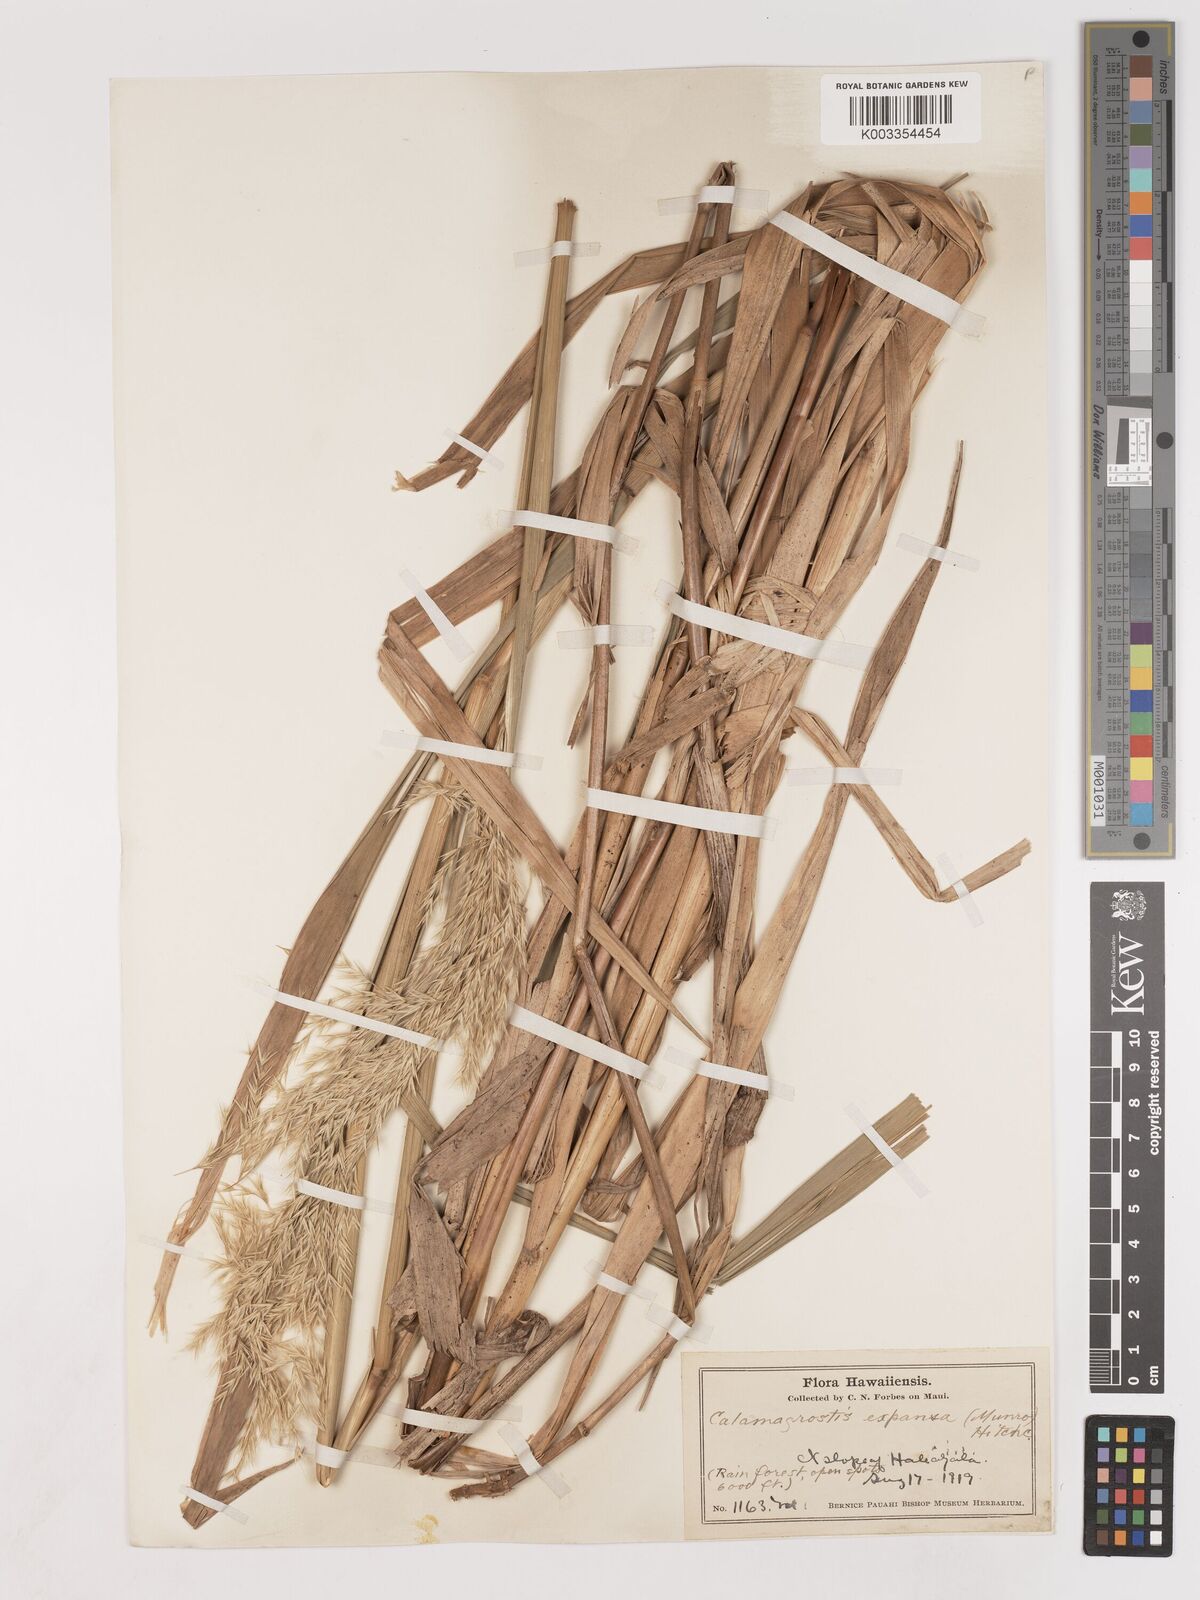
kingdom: Plantae
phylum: Tracheophyta
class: Liliopsida
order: Poales
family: Poaceae
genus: Calamagrostis
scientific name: Calamagrostis expansa
